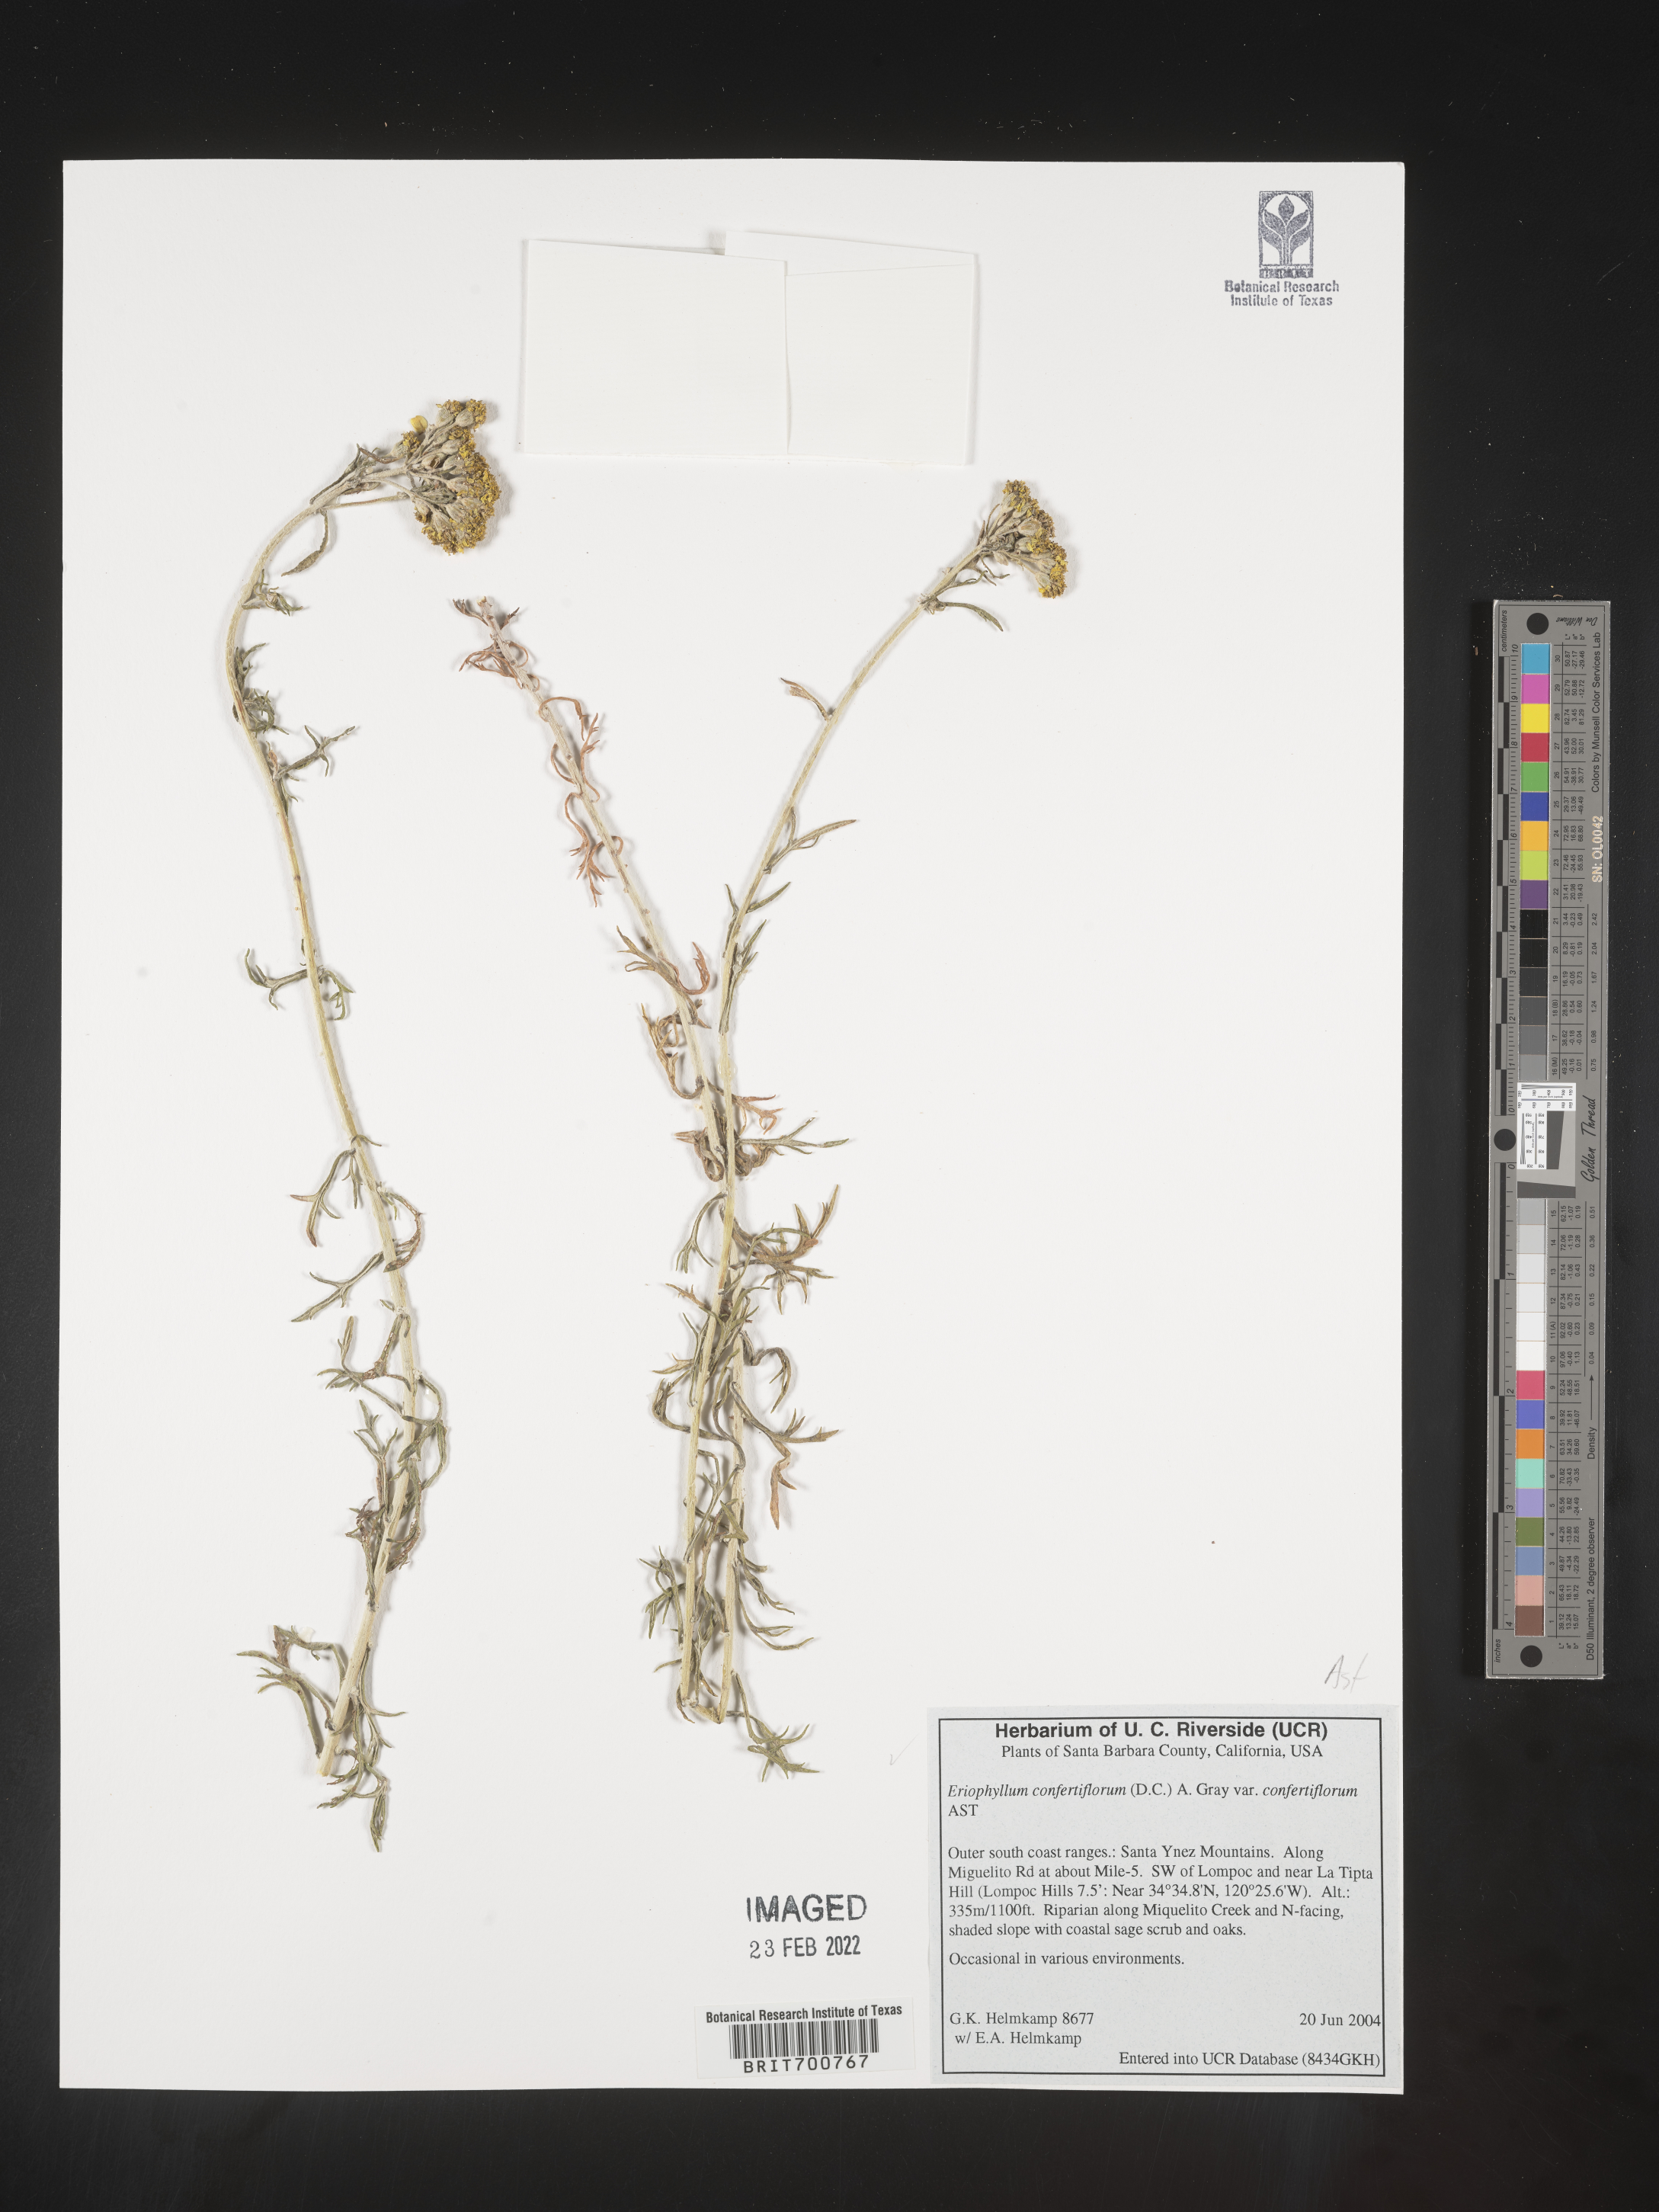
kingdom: Plantae
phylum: Tracheophyta
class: Magnoliopsida
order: Asterales
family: Asteraceae
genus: Eriophyllum
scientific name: Eriophyllum confertiflorum
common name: Golden-yarrow
